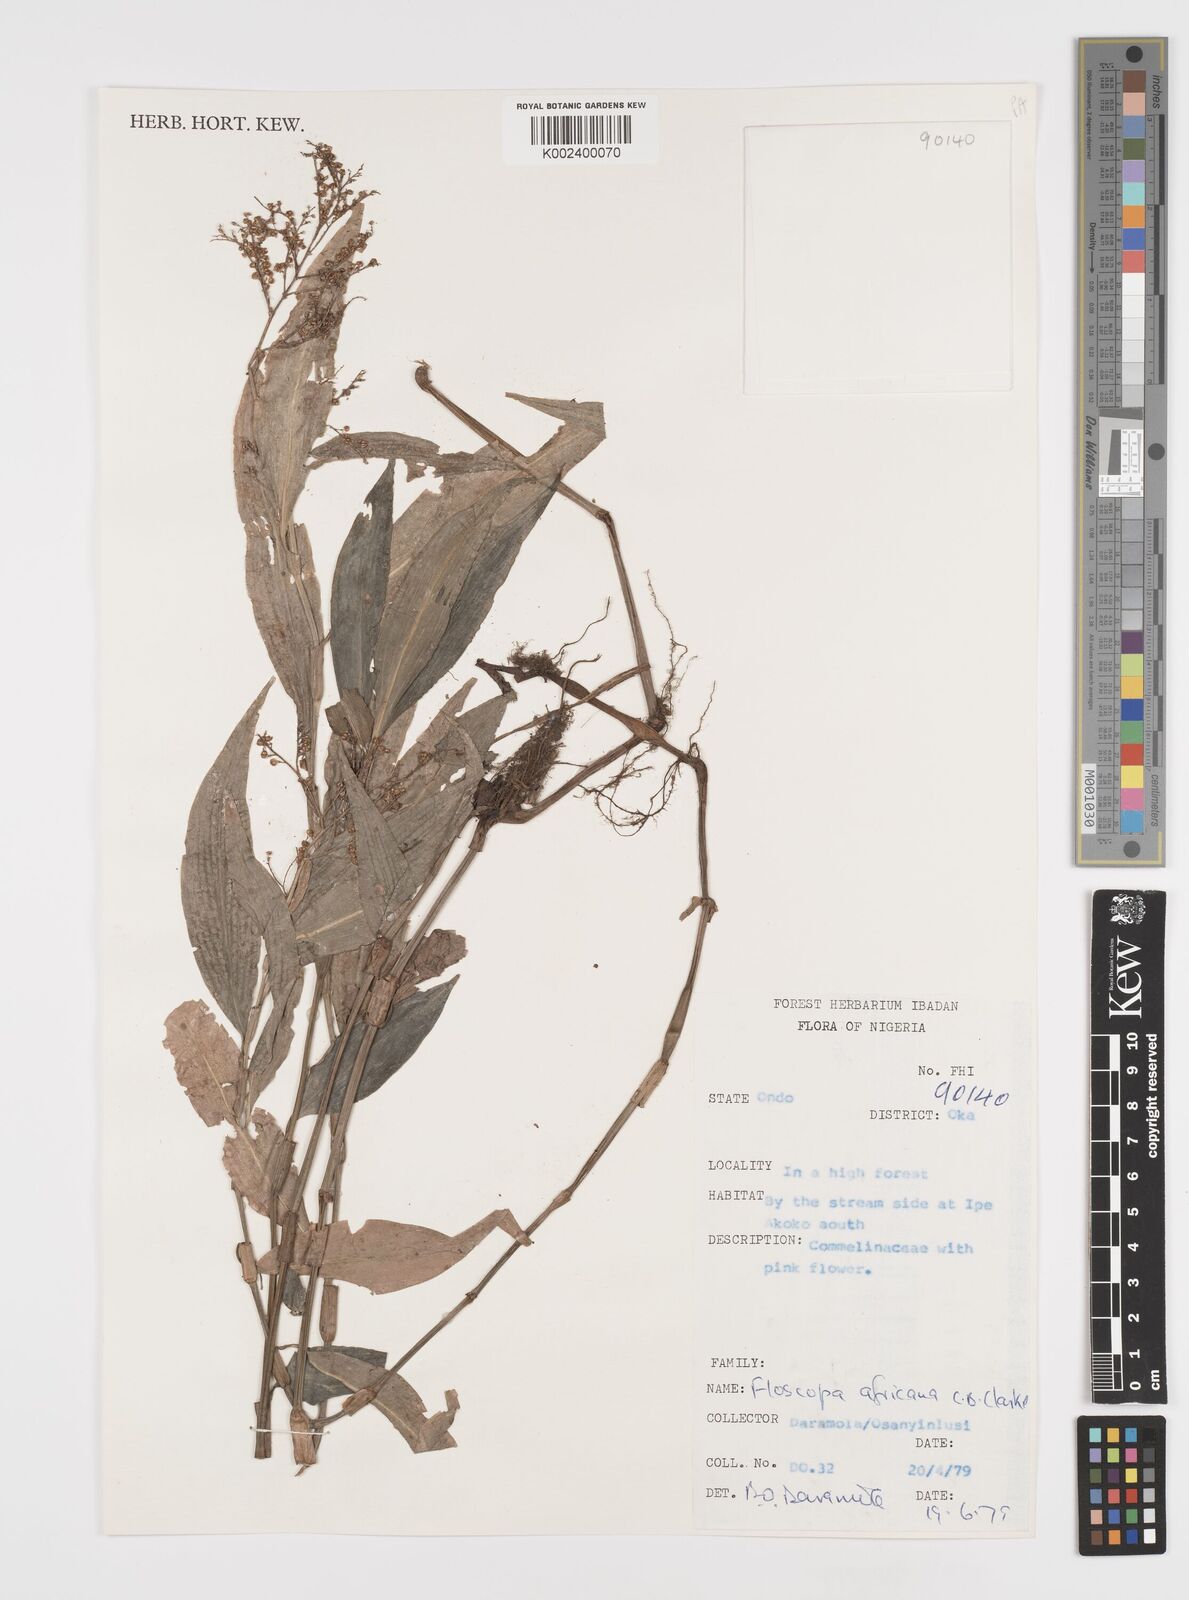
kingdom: Plantae
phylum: Tracheophyta
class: Liliopsida
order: Commelinales
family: Commelinaceae
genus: Floscopa
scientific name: Floscopa africana
